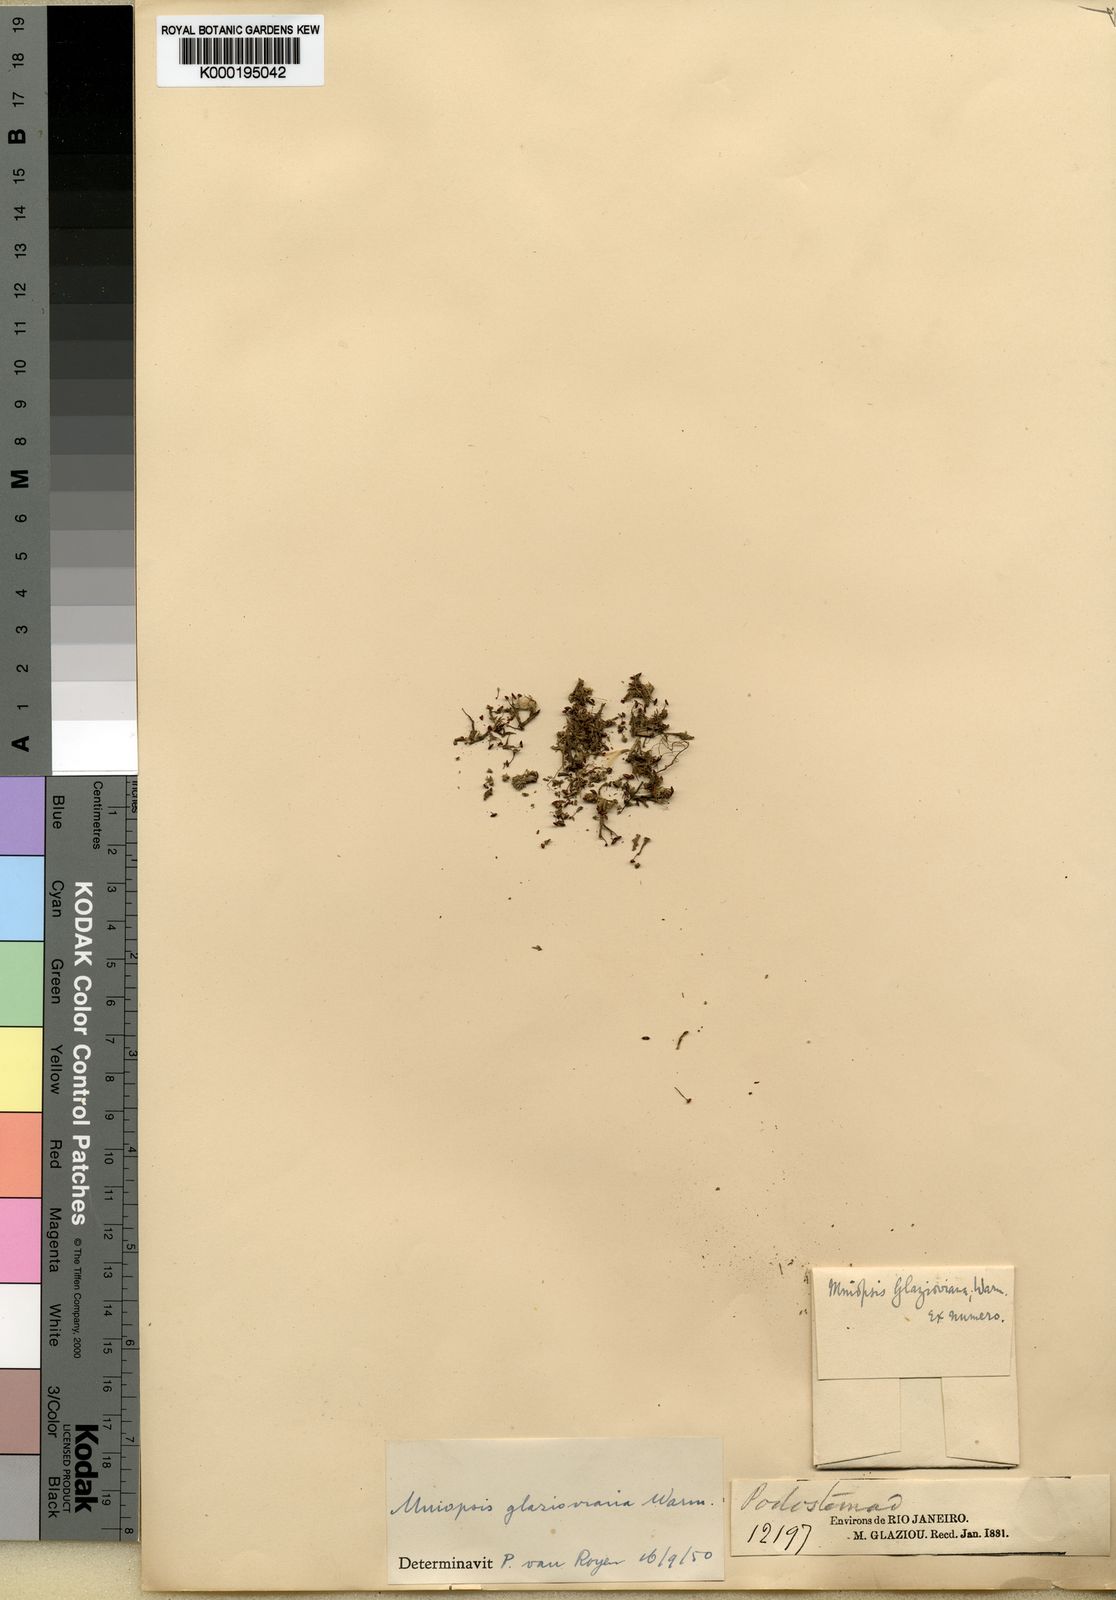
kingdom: Plantae
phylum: Tracheophyta
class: Magnoliopsida
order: Malpighiales
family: Podostemaceae
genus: Podostemum
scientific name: Podostemum ovatum
